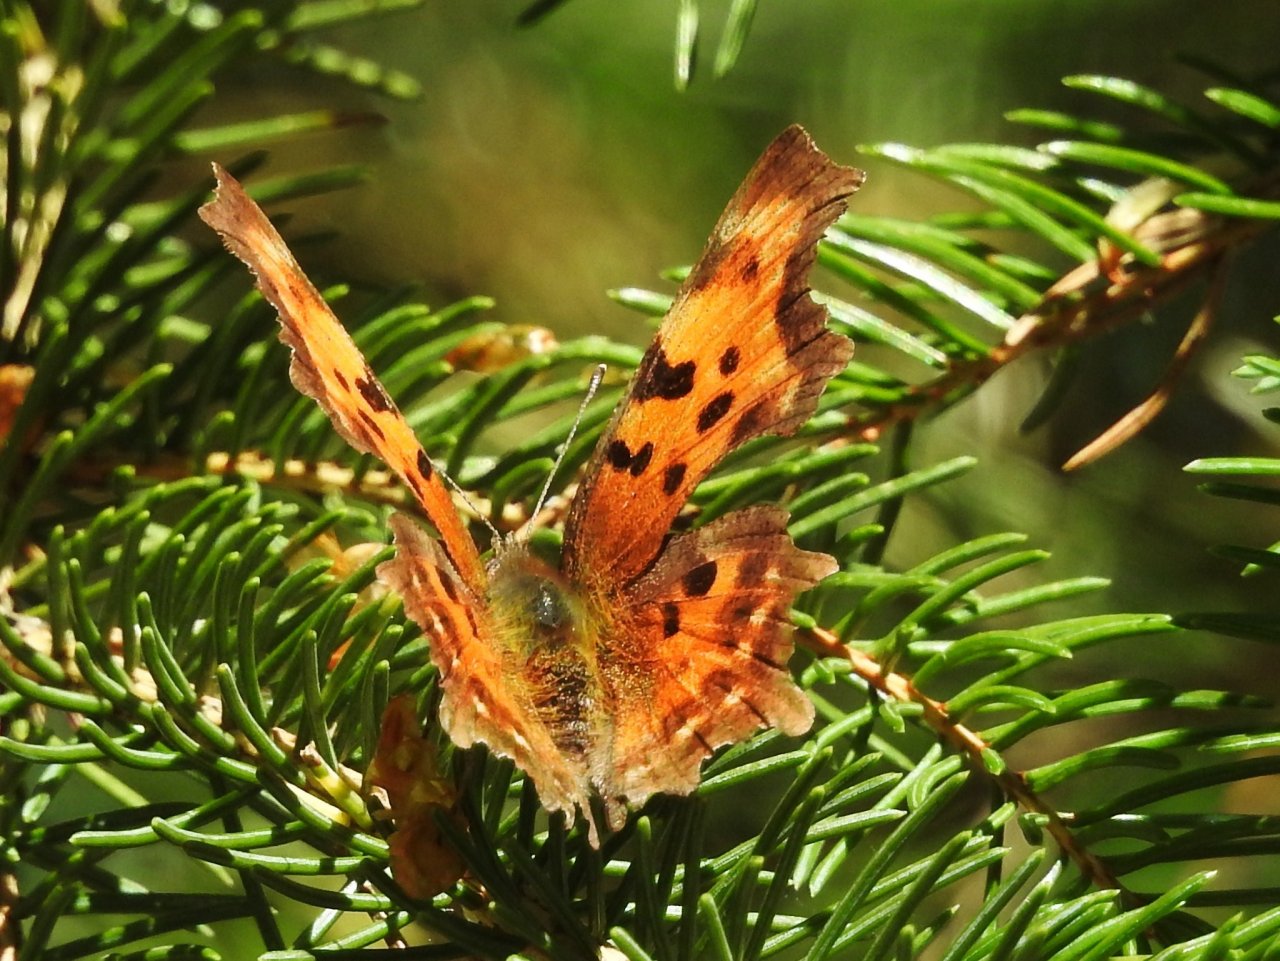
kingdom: Animalia
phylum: Arthropoda
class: Insecta
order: Lepidoptera
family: Nymphalidae
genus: Polygonia
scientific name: Polygonia faunus
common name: Green Comma
